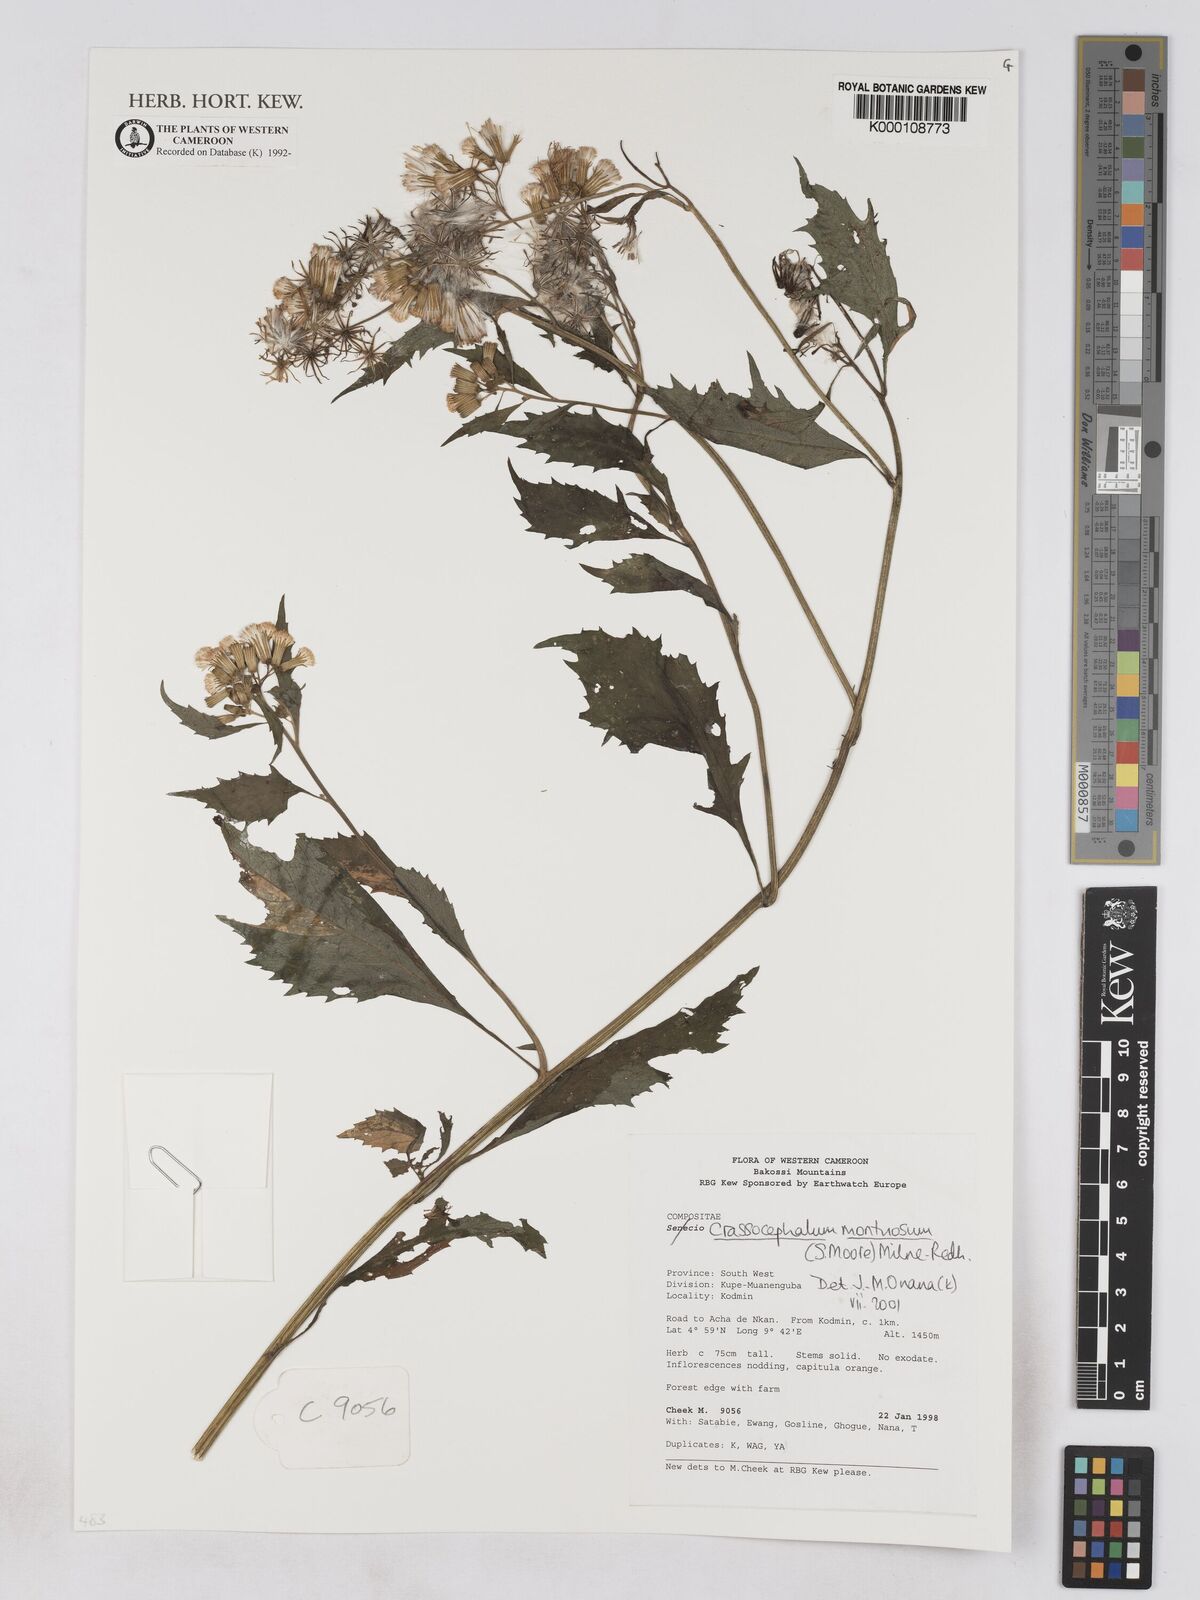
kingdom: Plantae
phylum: Tracheophyta
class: Magnoliopsida
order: Asterales
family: Asteraceae
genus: Crassocephalum
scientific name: Crassocephalum montuosum
